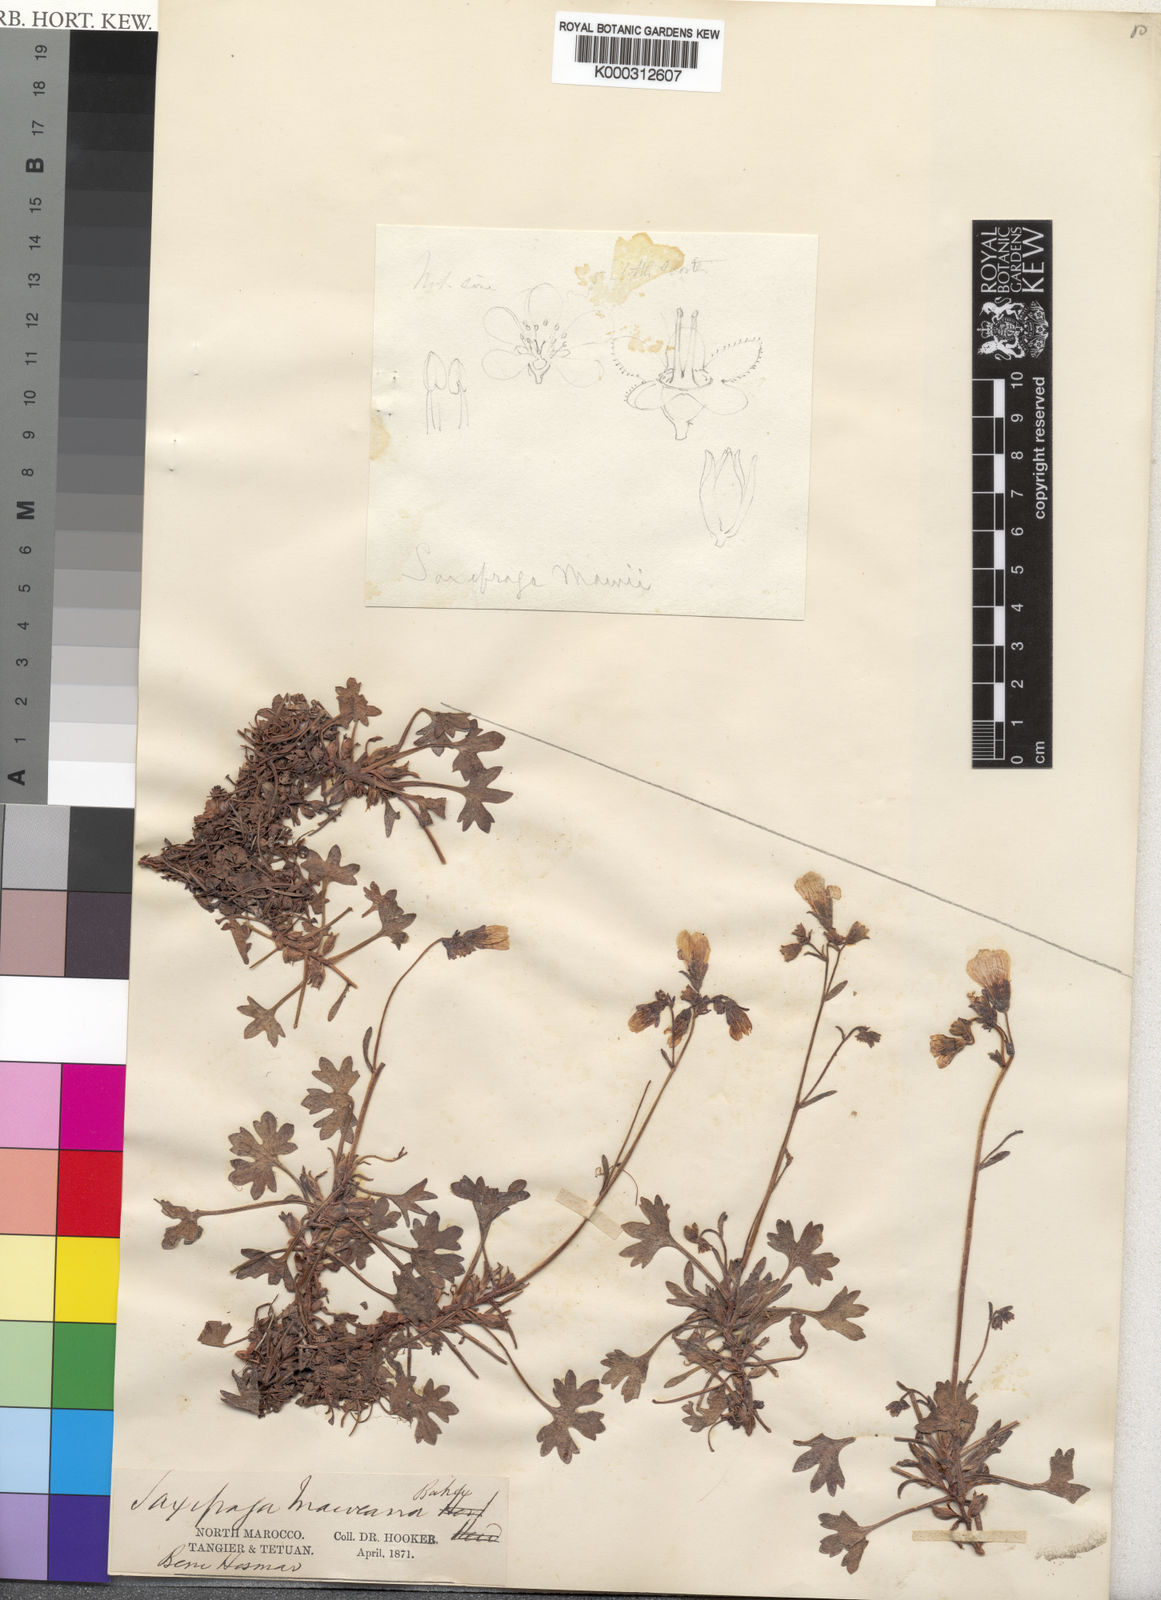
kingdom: Plantae
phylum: Tracheophyta
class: Magnoliopsida
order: Saxifragales
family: Saxifragaceae
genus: Saxifraga
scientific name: Saxifraga maweana
